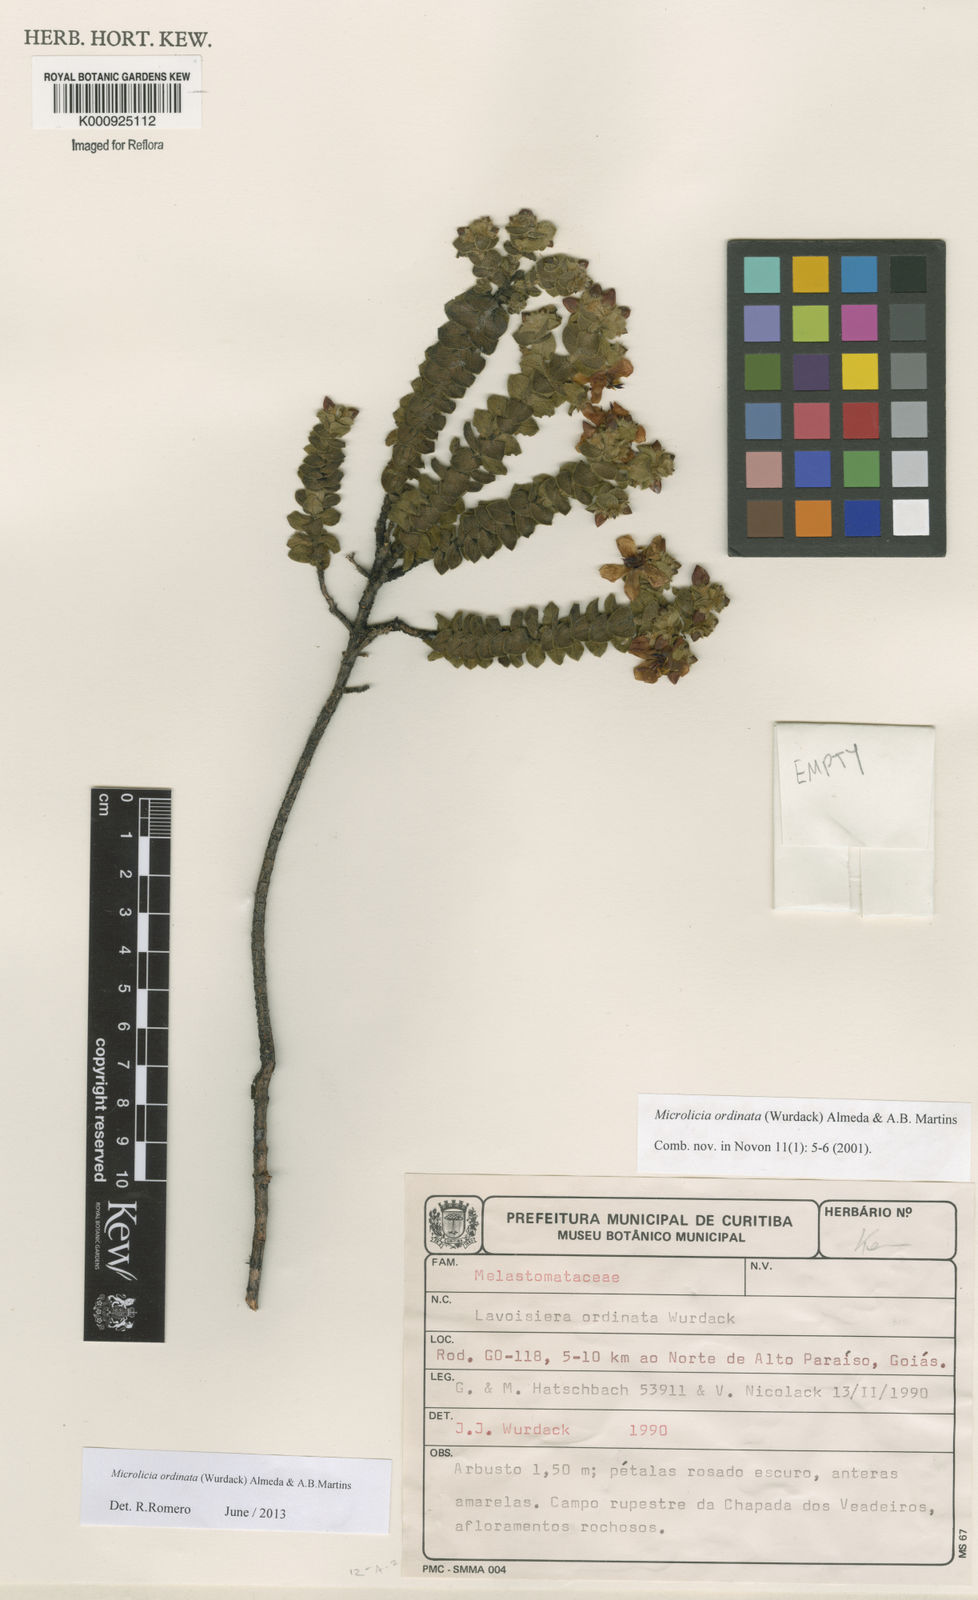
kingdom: Plantae
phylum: Tracheophyta
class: Magnoliopsida
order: Myrtales
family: Melastomataceae
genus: Microlicia
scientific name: Microlicia ordinata
